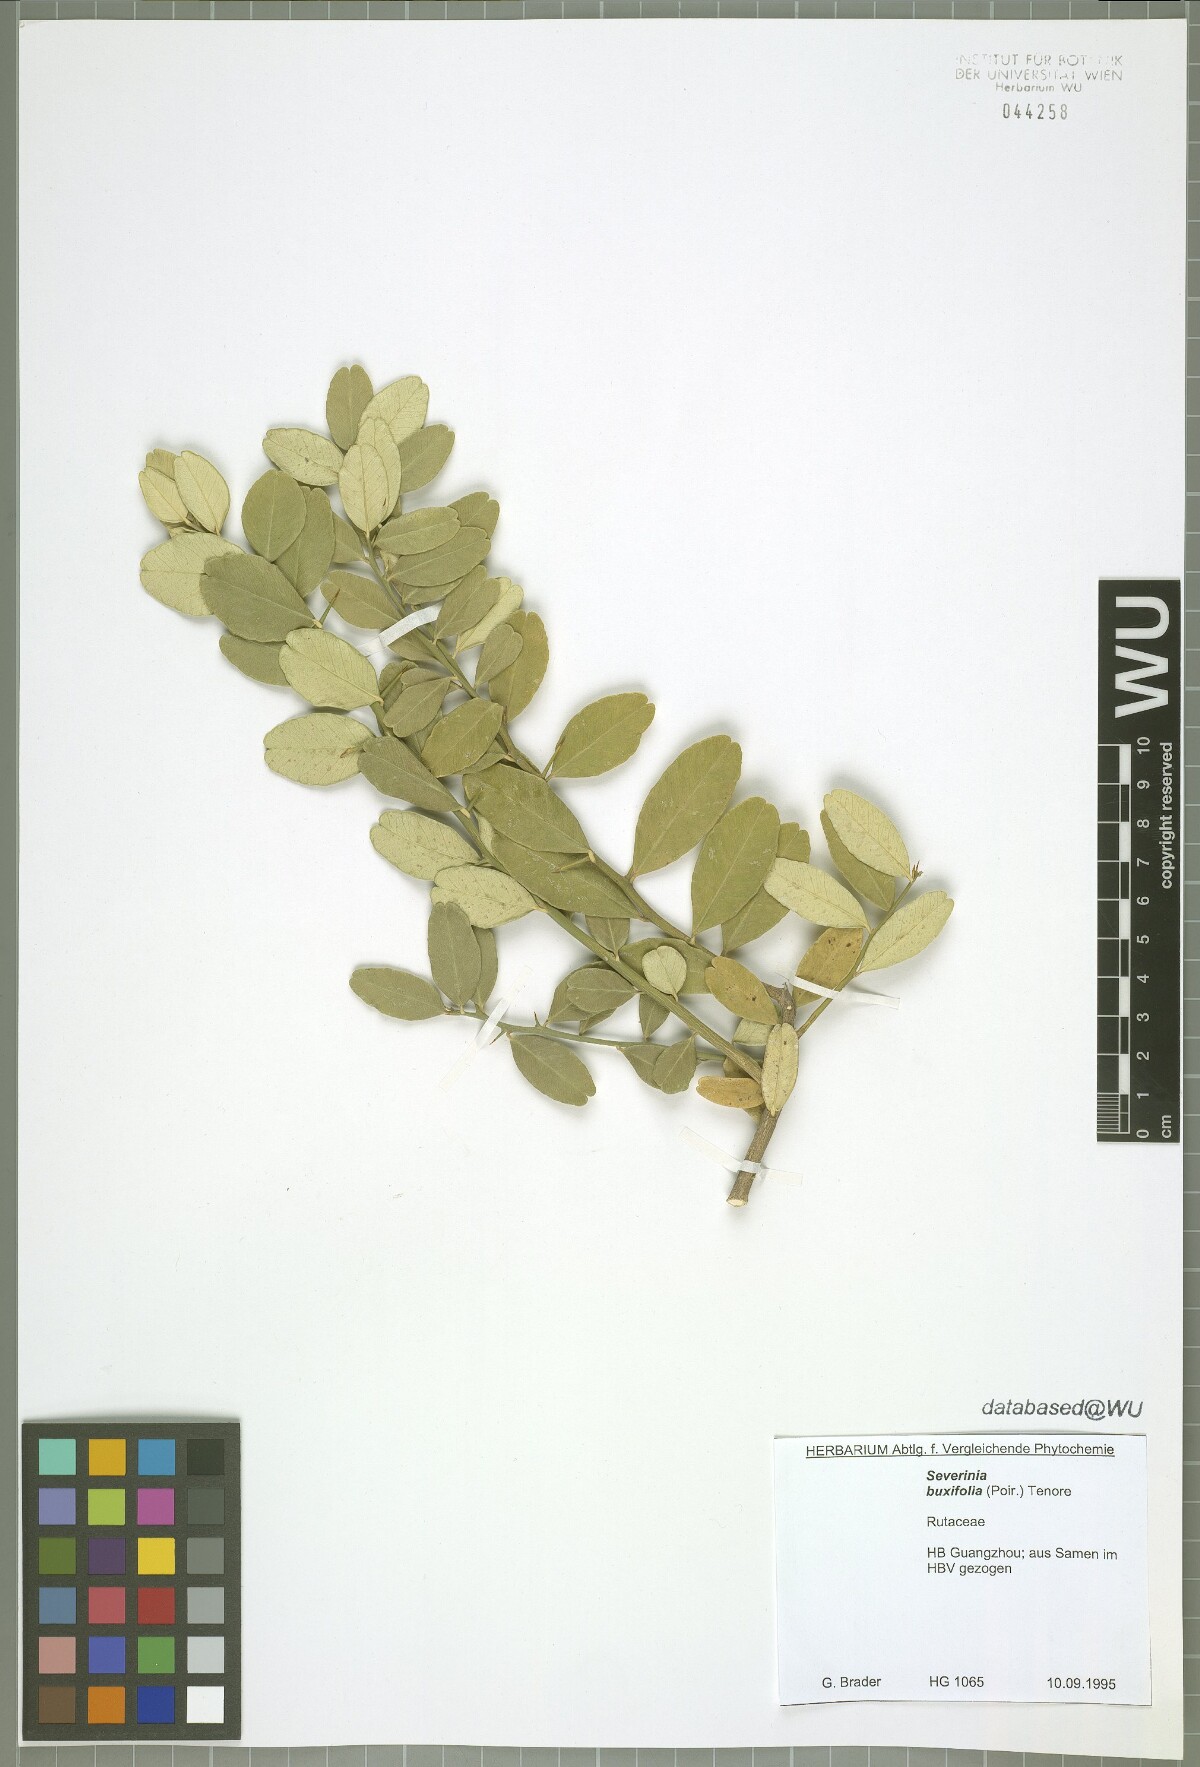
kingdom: Plantae
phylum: Tracheophyta
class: Magnoliopsida
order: Sapindales
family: Rutaceae
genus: Atalantia
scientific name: Atalantia buxifolia
